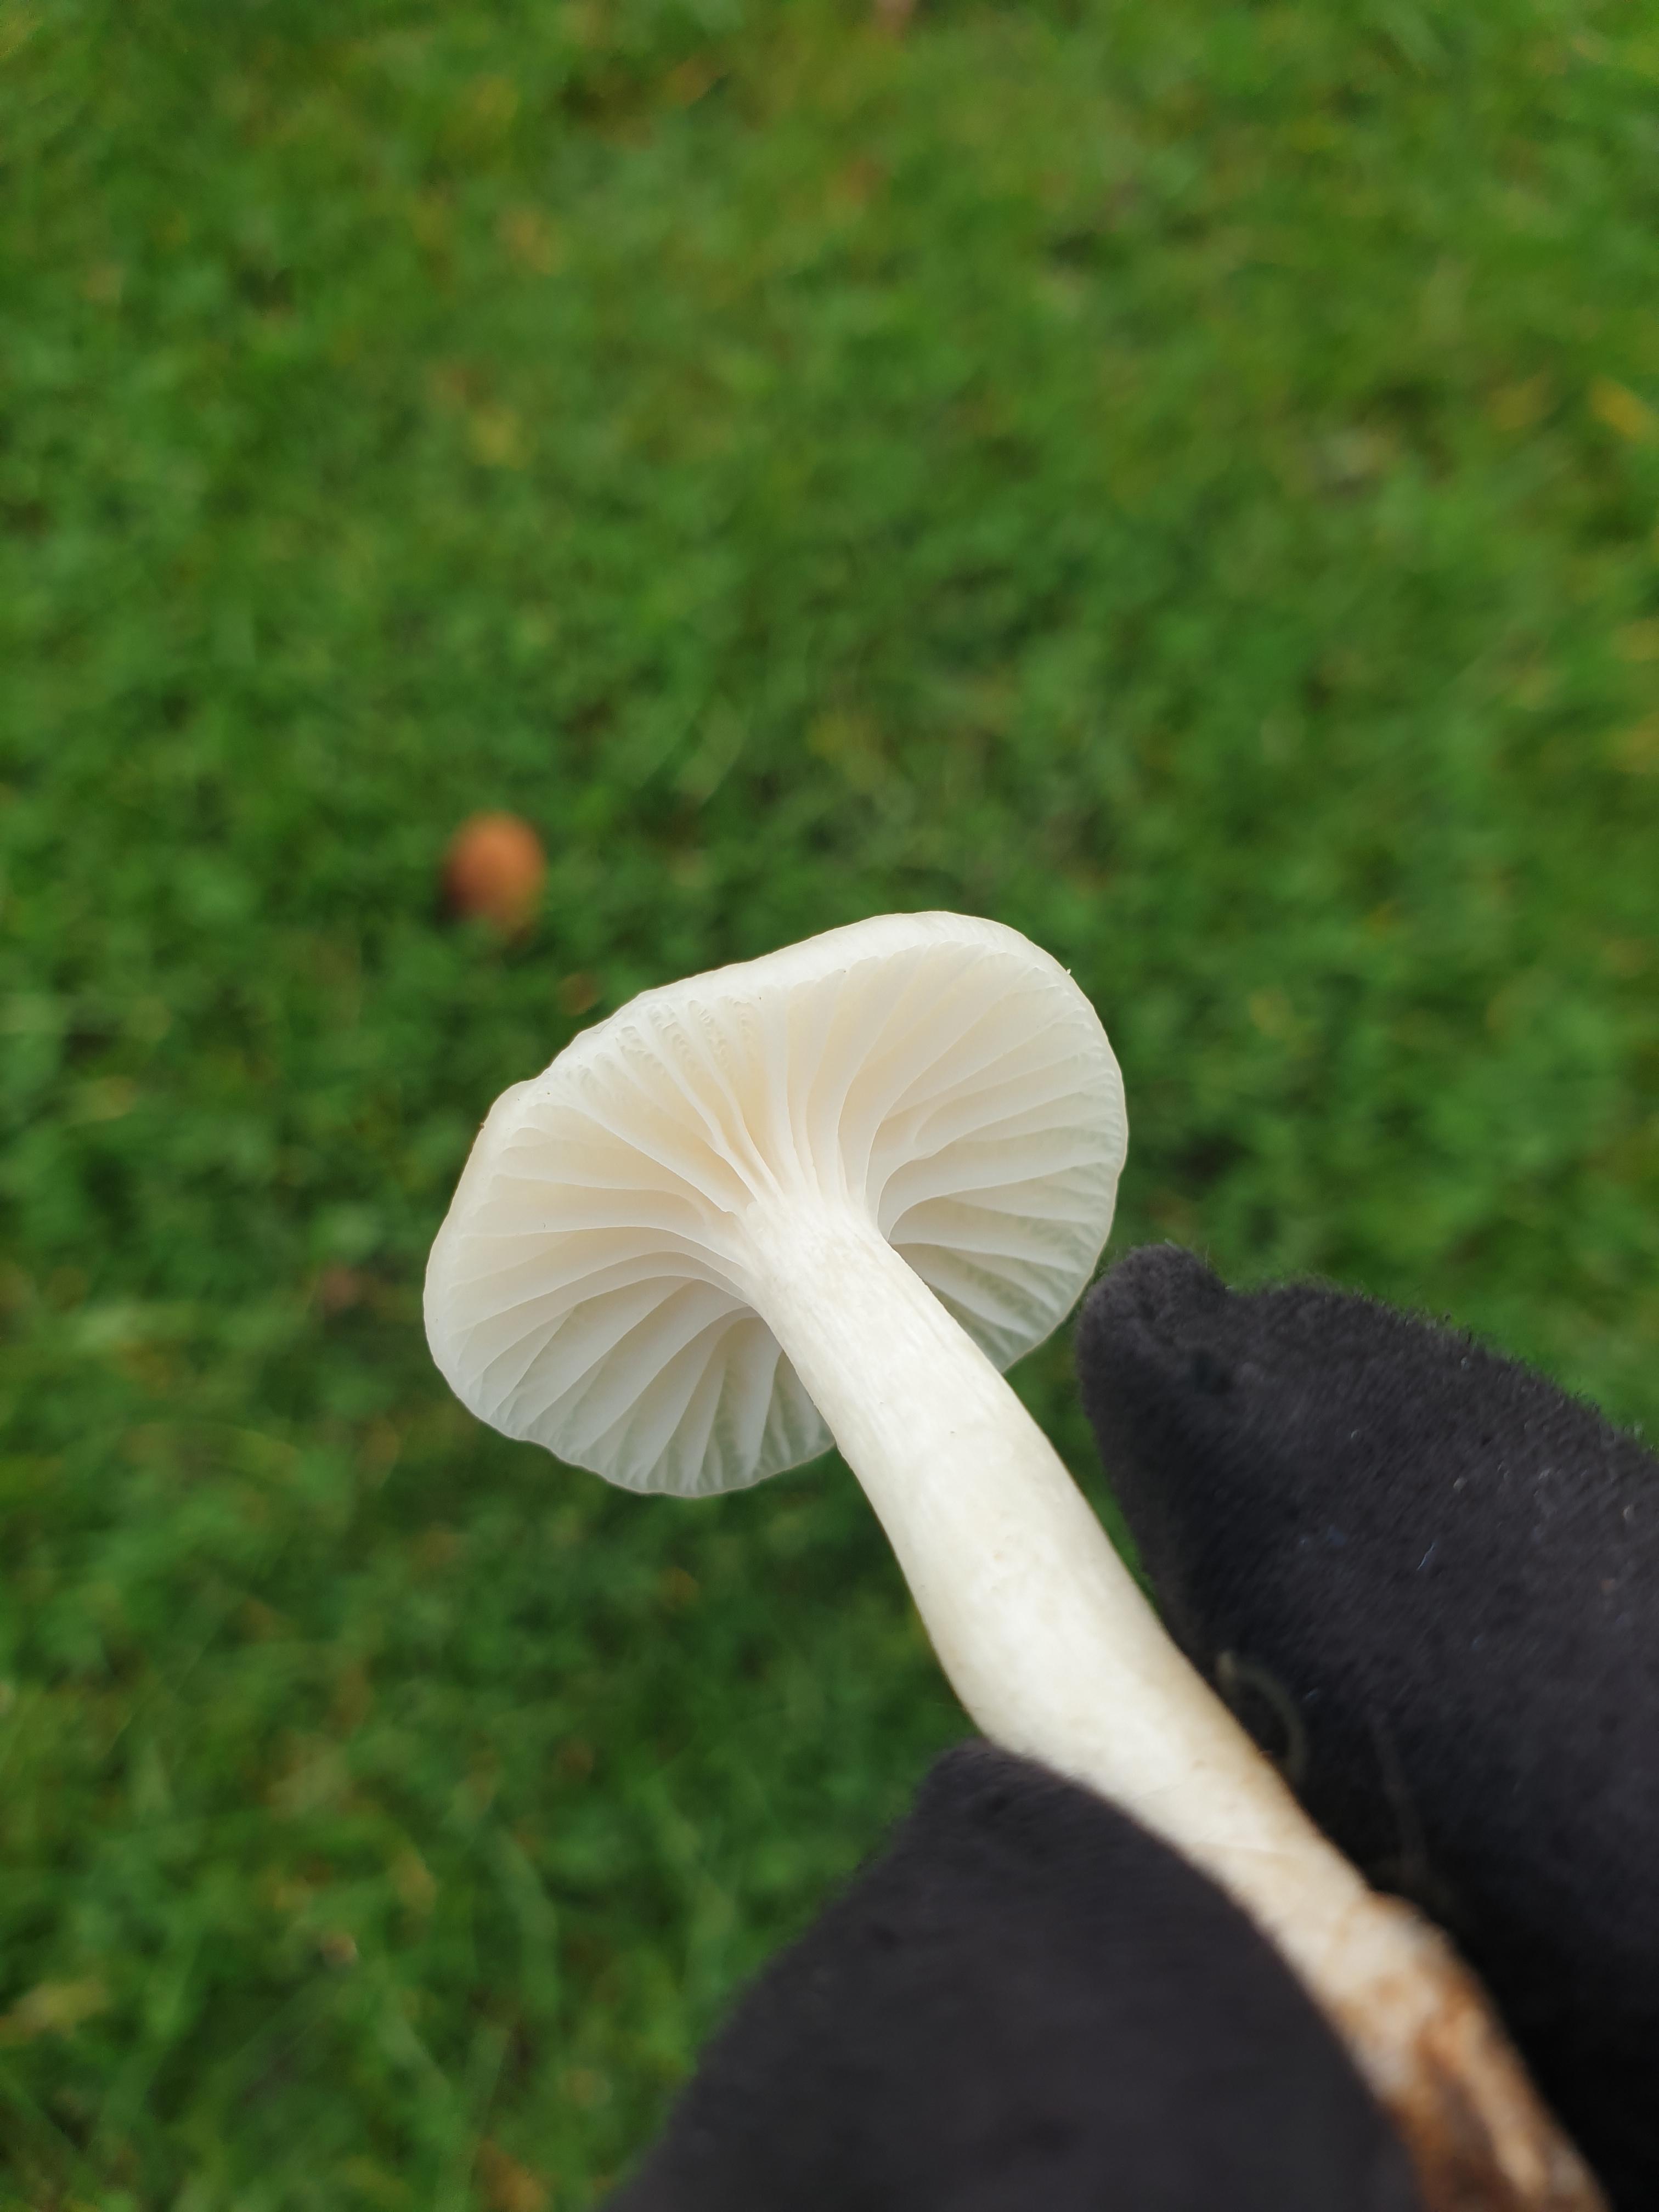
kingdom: Fungi
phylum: Basidiomycota
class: Agaricomycetes
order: Agaricales
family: Hygrophoraceae
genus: Cuphophyllus
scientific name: Cuphophyllus virgineus
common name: snehvid vokshat
